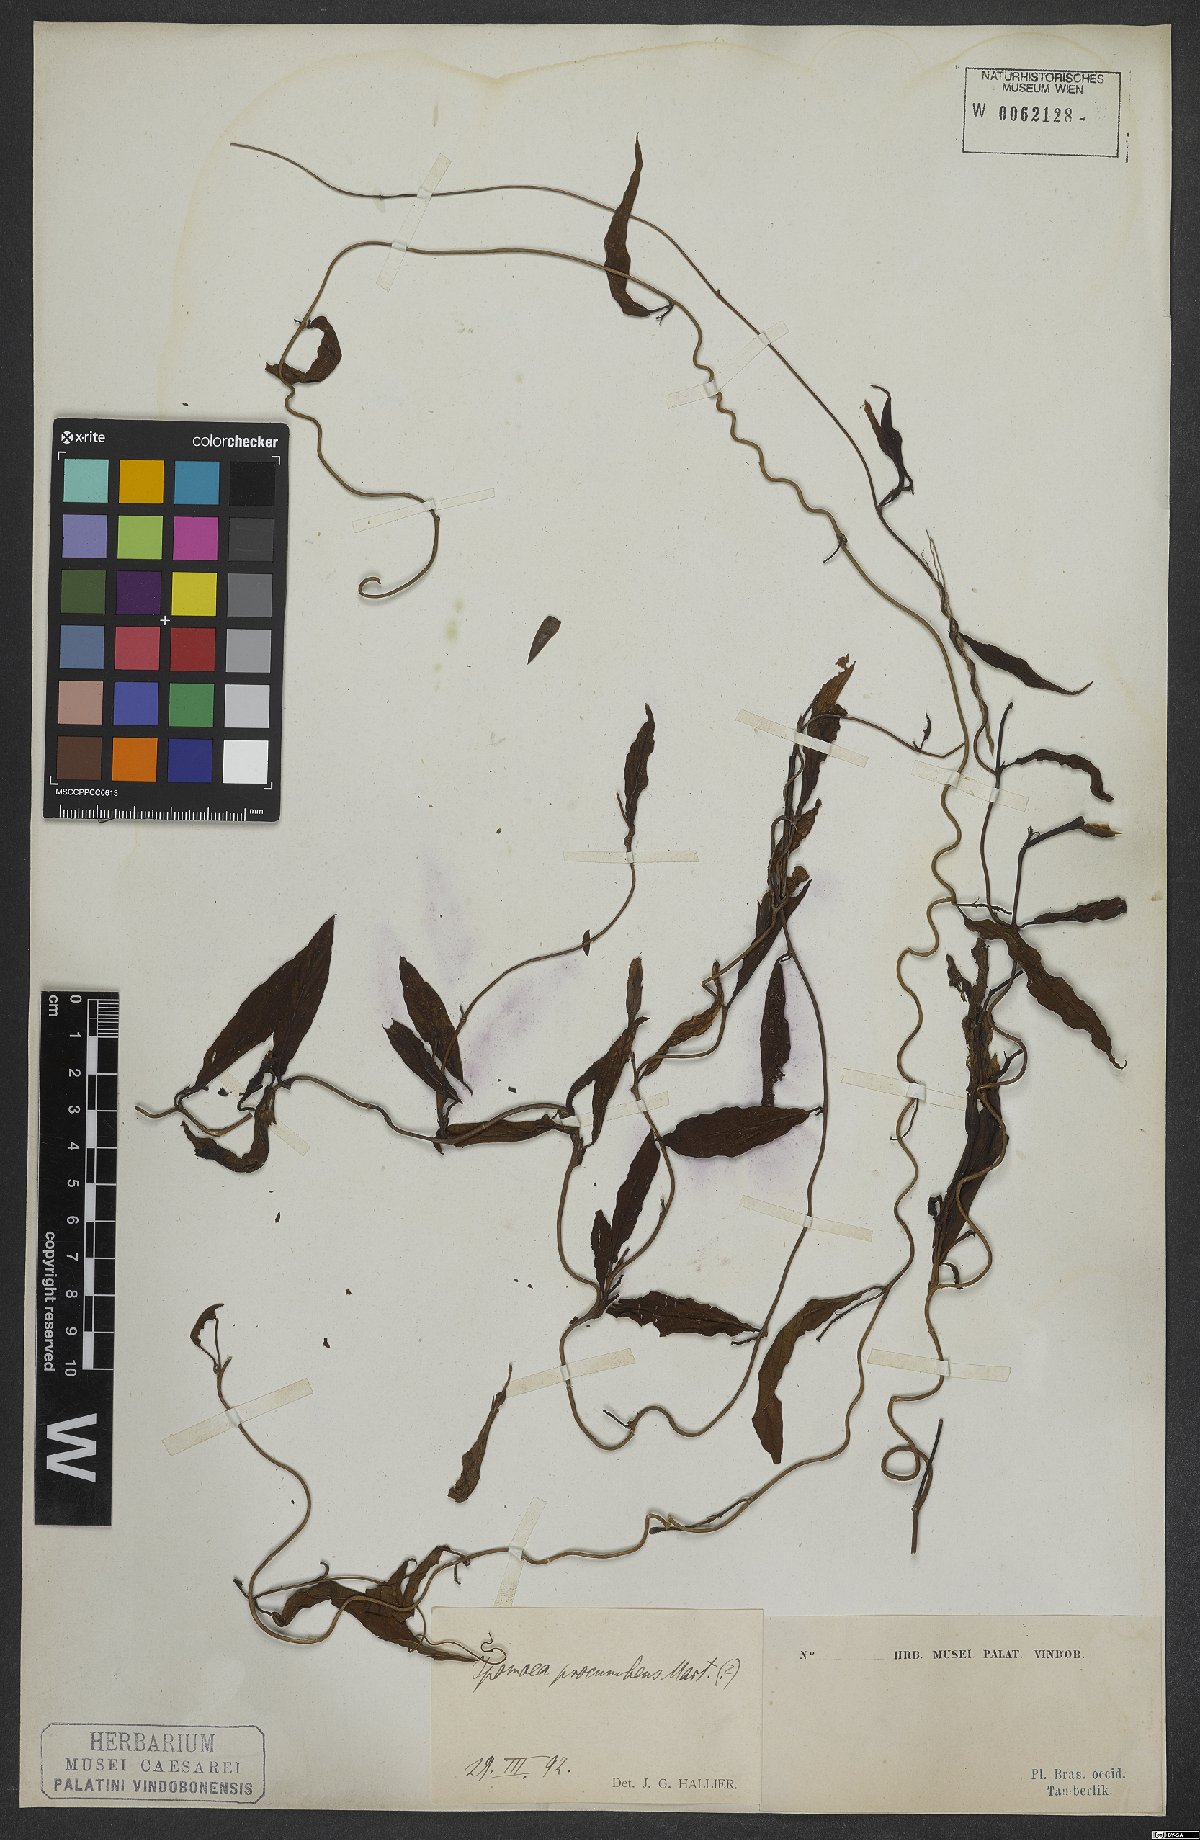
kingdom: Plantae
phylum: Tracheophyta
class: Magnoliopsida
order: Solanales
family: Convolvulaceae
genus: Ipomoea
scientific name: Ipomoea procumbens
